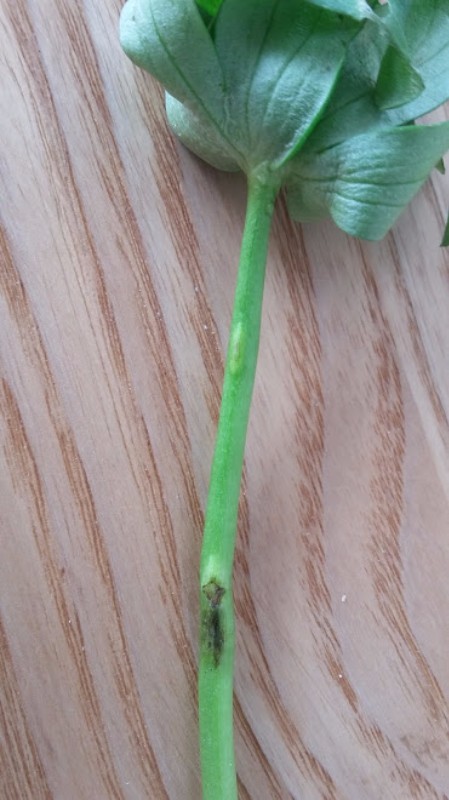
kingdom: Fungi
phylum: Basidiomycota
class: Ustilaginomycetes
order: Urocystidales
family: Urocystidaceae
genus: Urocystis
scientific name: Urocystis eranthidis
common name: erantis-brand
